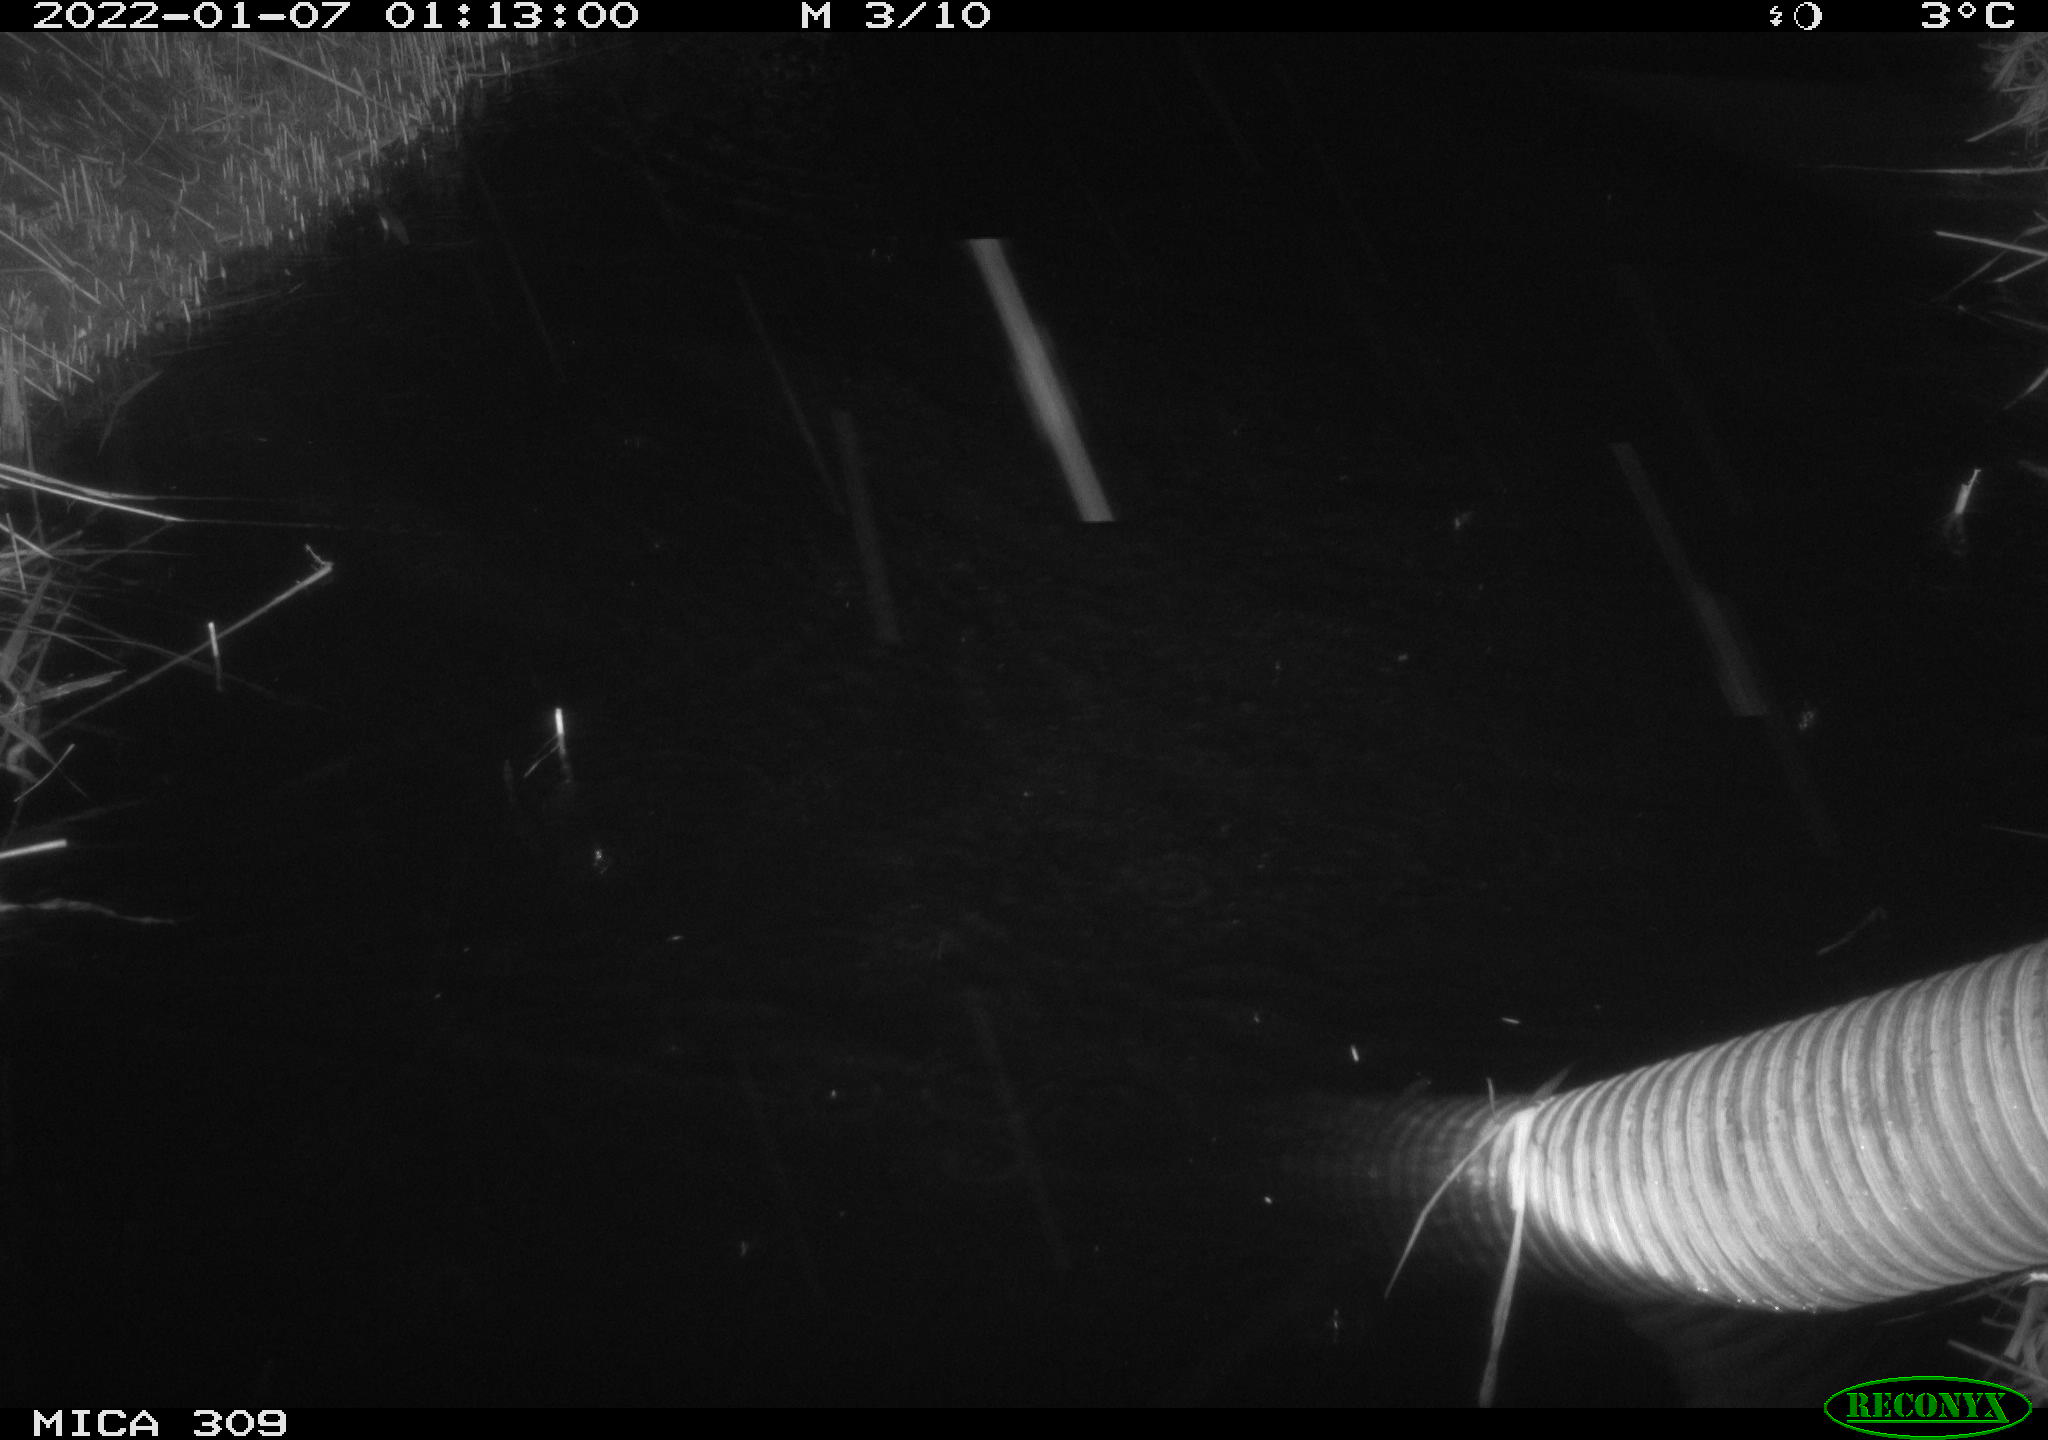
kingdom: Animalia
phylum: Chordata
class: Mammalia
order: Rodentia
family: Muridae
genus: Rattus
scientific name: Rattus norvegicus
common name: Brown rat
